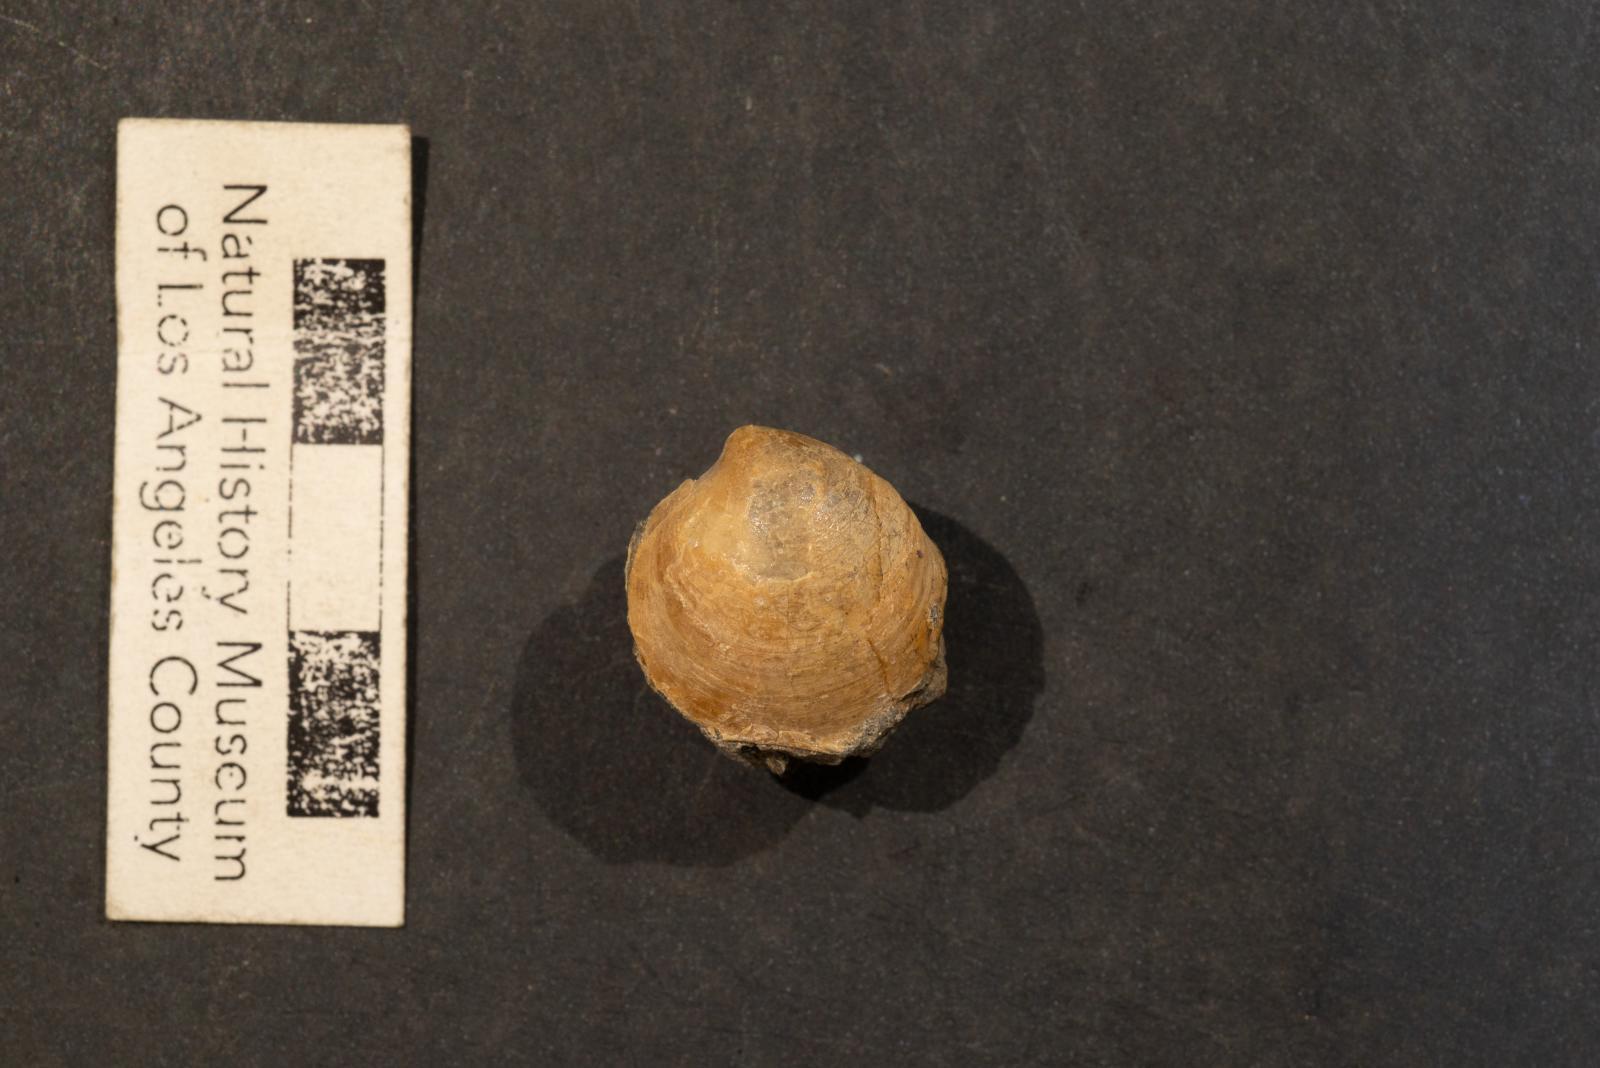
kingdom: Animalia
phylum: Mollusca
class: Bivalvia
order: Venerida
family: Veneridae
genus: Dosinia
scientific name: Dosinia lupinus
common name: Smooth artemis
